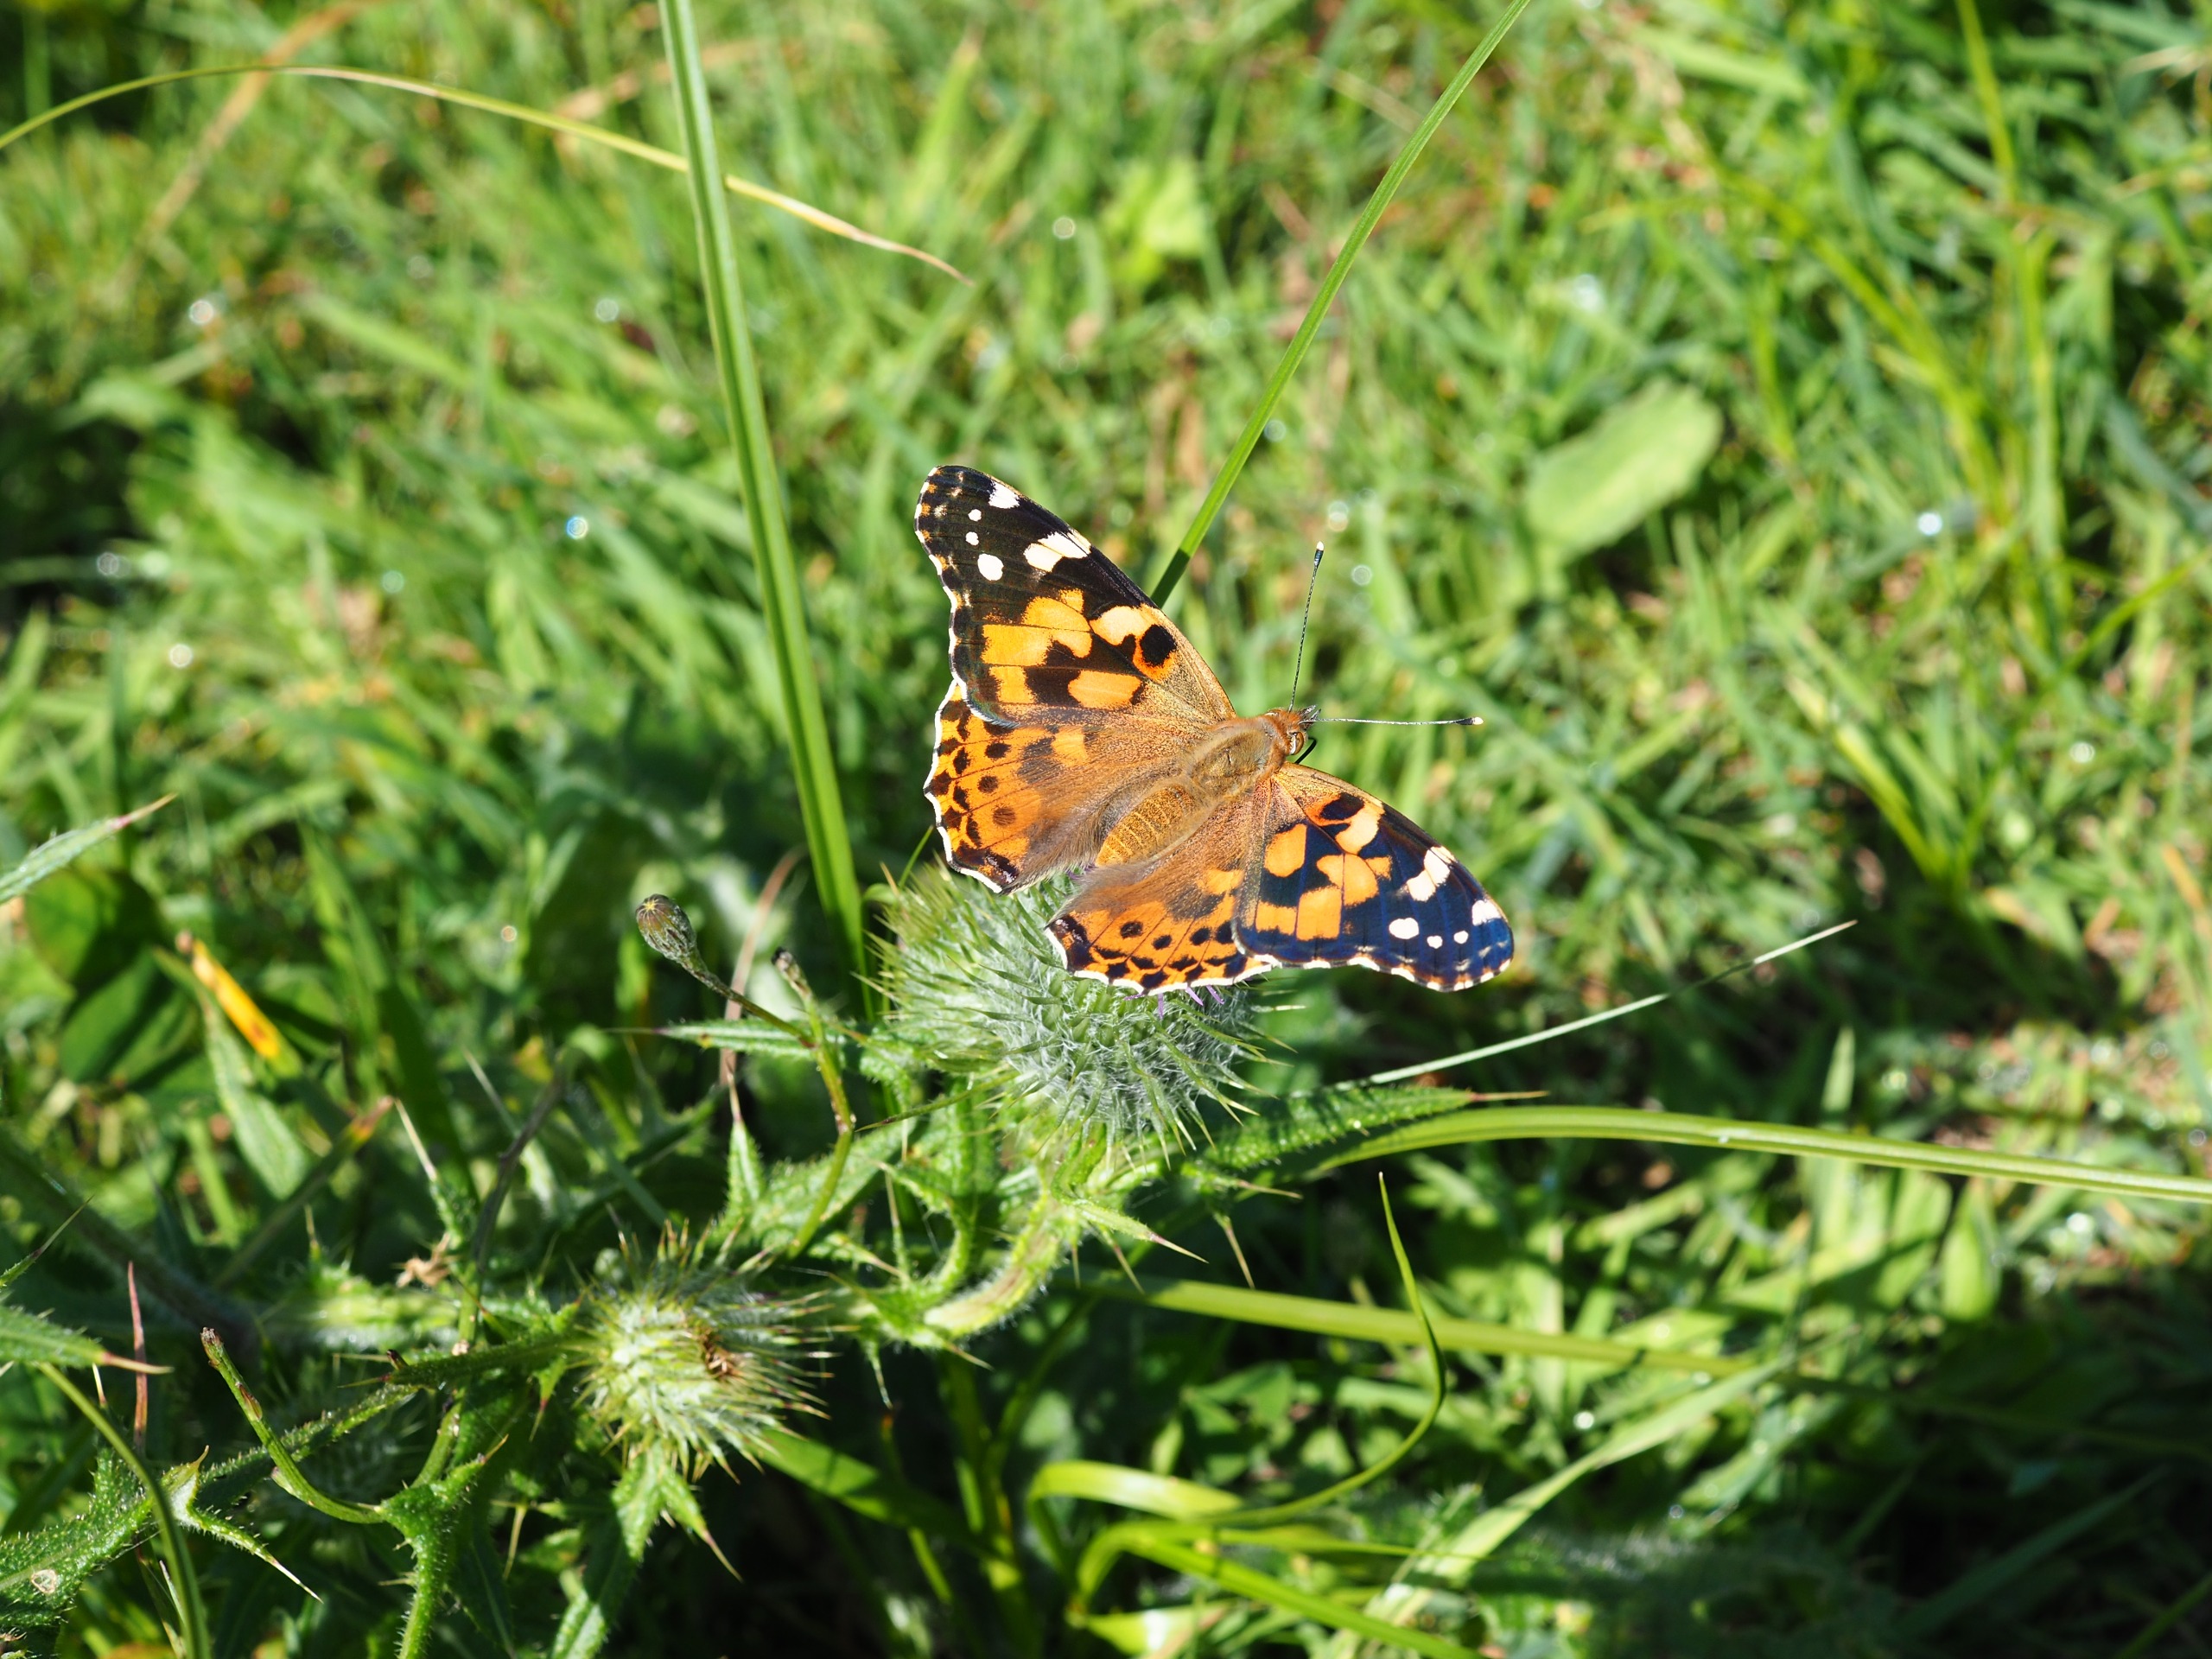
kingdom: Animalia
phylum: Arthropoda
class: Insecta
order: Lepidoptera
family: Nymphalidae
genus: Vanessa
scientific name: Vanessa cardui
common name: Tidselsommerfugl
